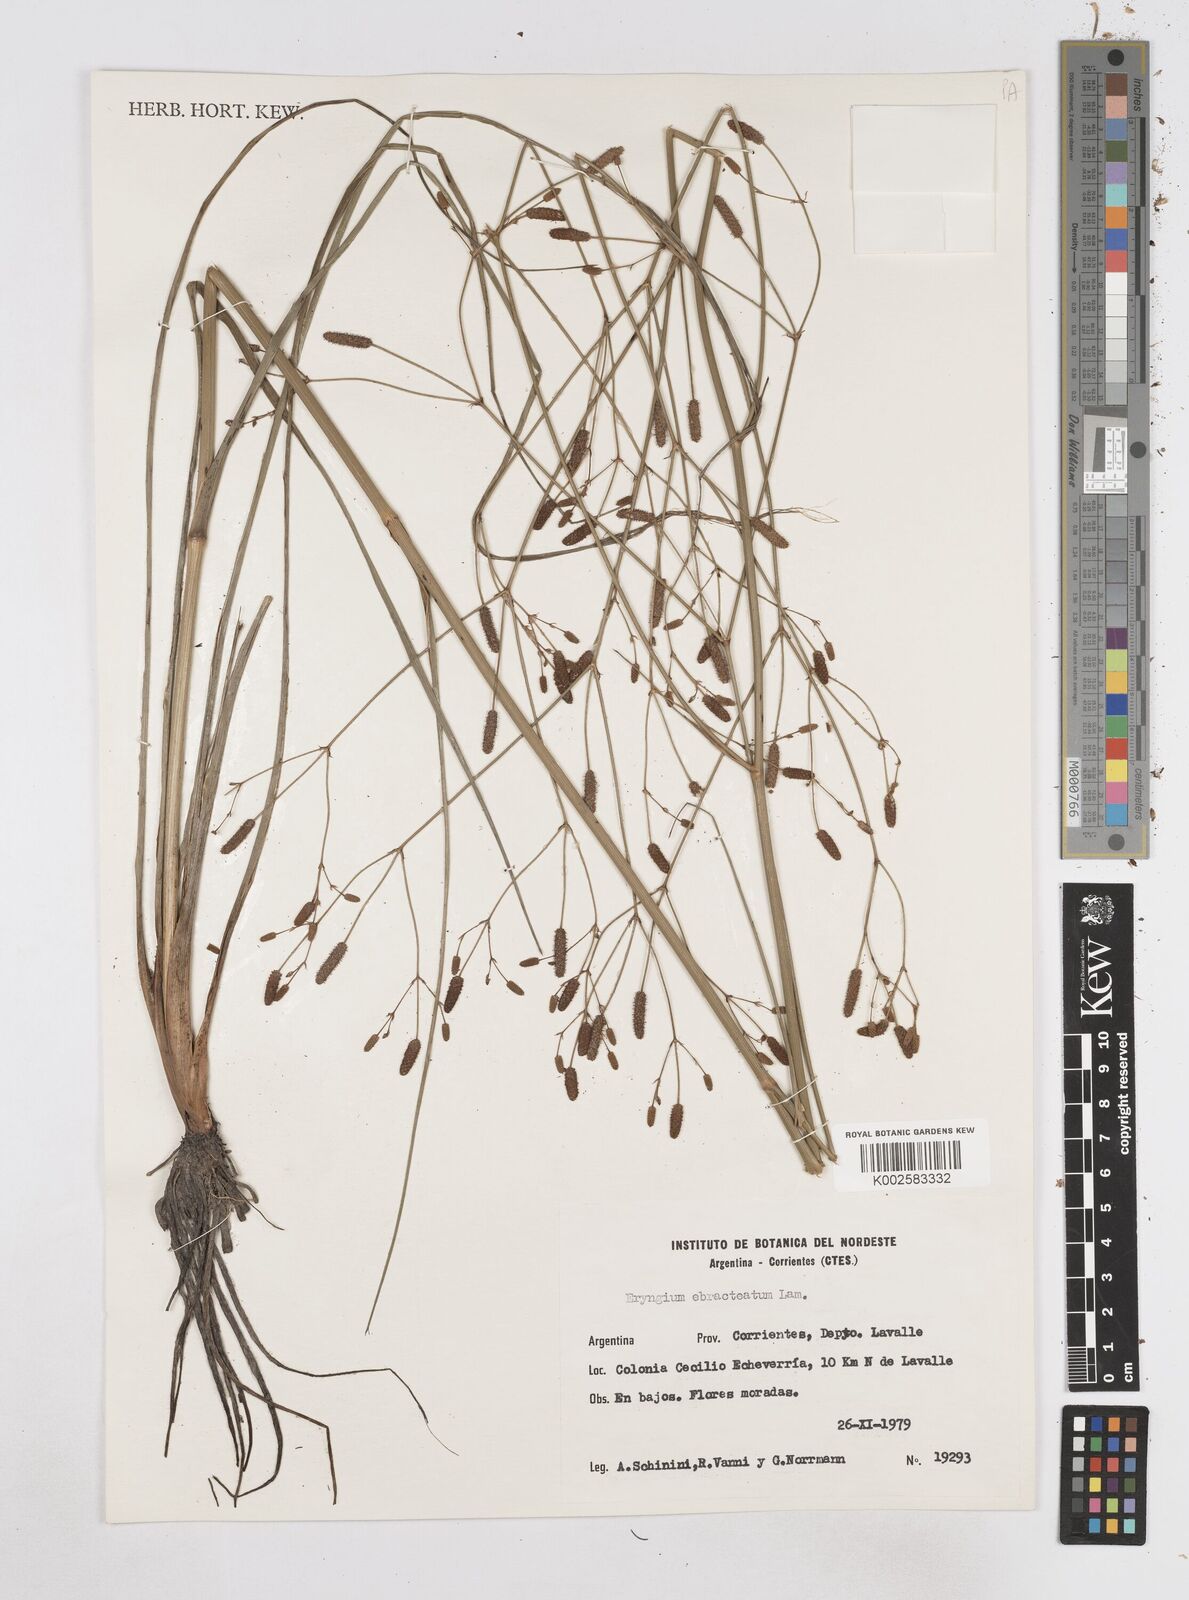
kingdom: Plantae
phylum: Tracheophyta
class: Magnoliopsida
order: Apiales
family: Apiaceae
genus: Eryngium
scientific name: Eryngium ebracteatum
